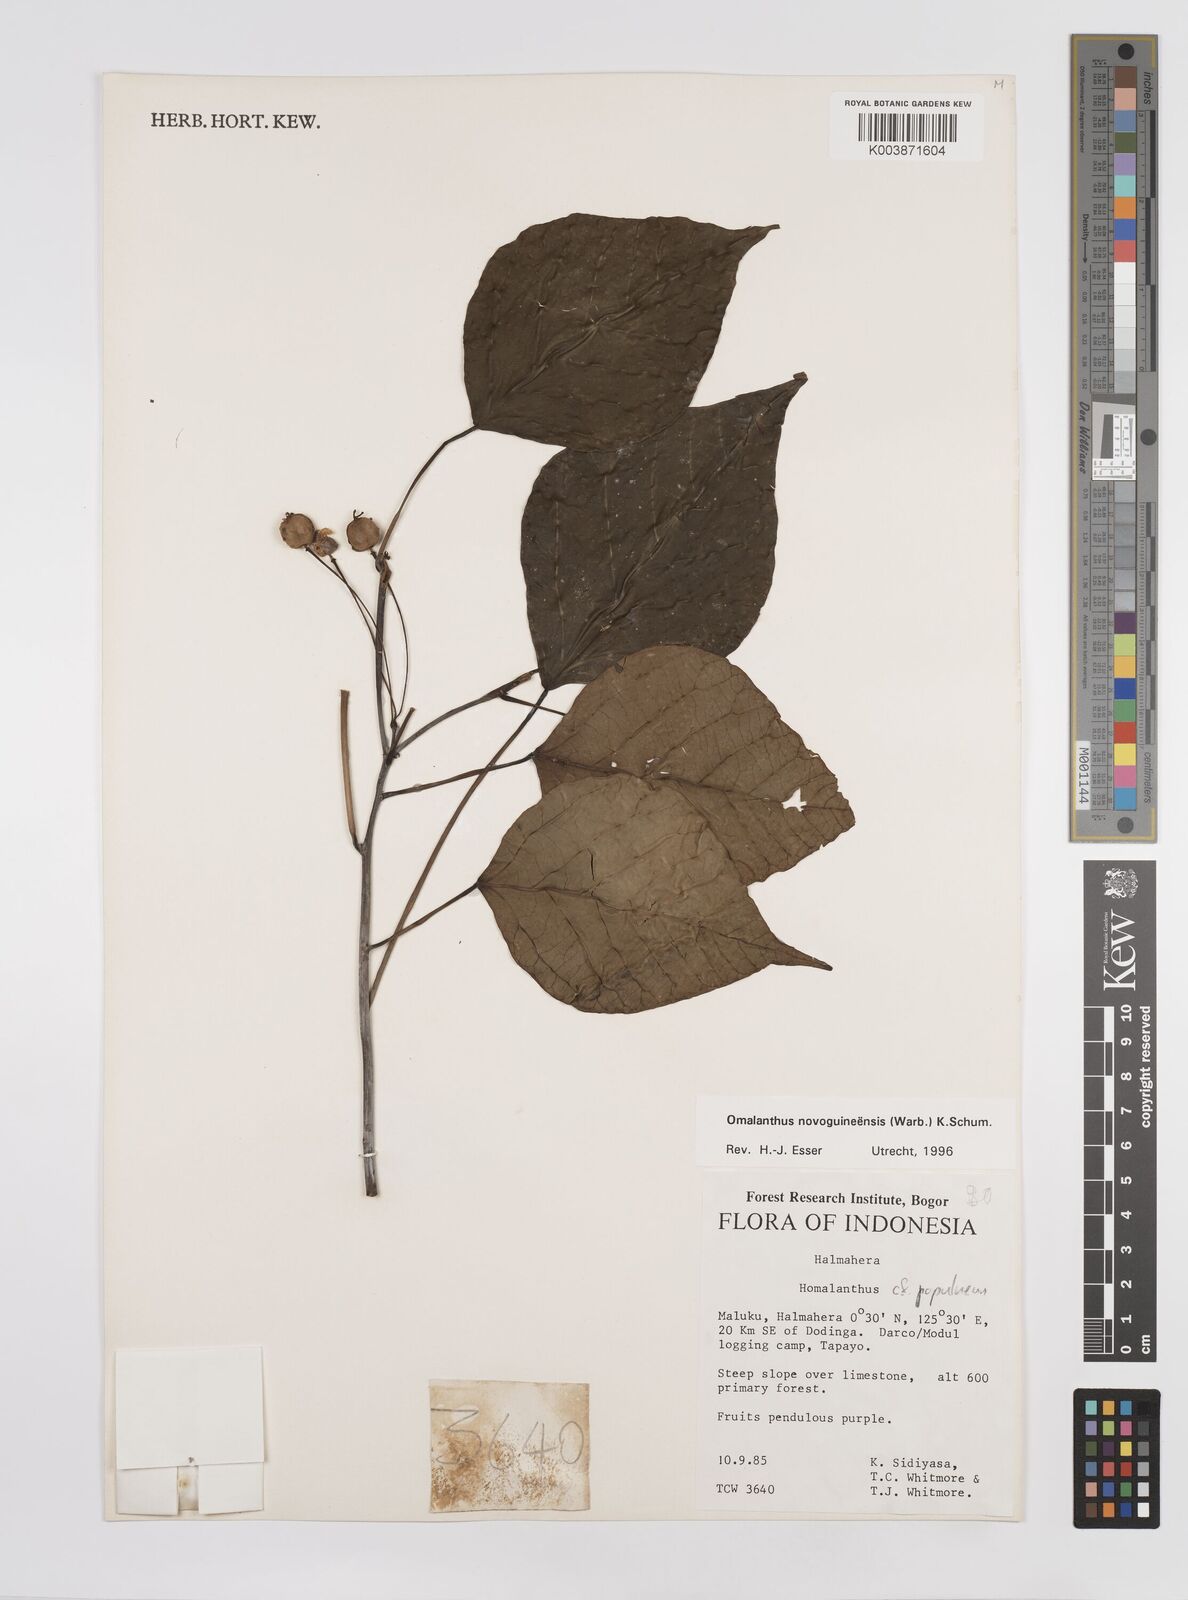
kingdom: Plantae
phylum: Tracheophyta
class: Magnoliopsida
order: Malpighiales
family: Euphorbiaceae
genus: Homalanthus
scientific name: Homalanthus novoguineensis
